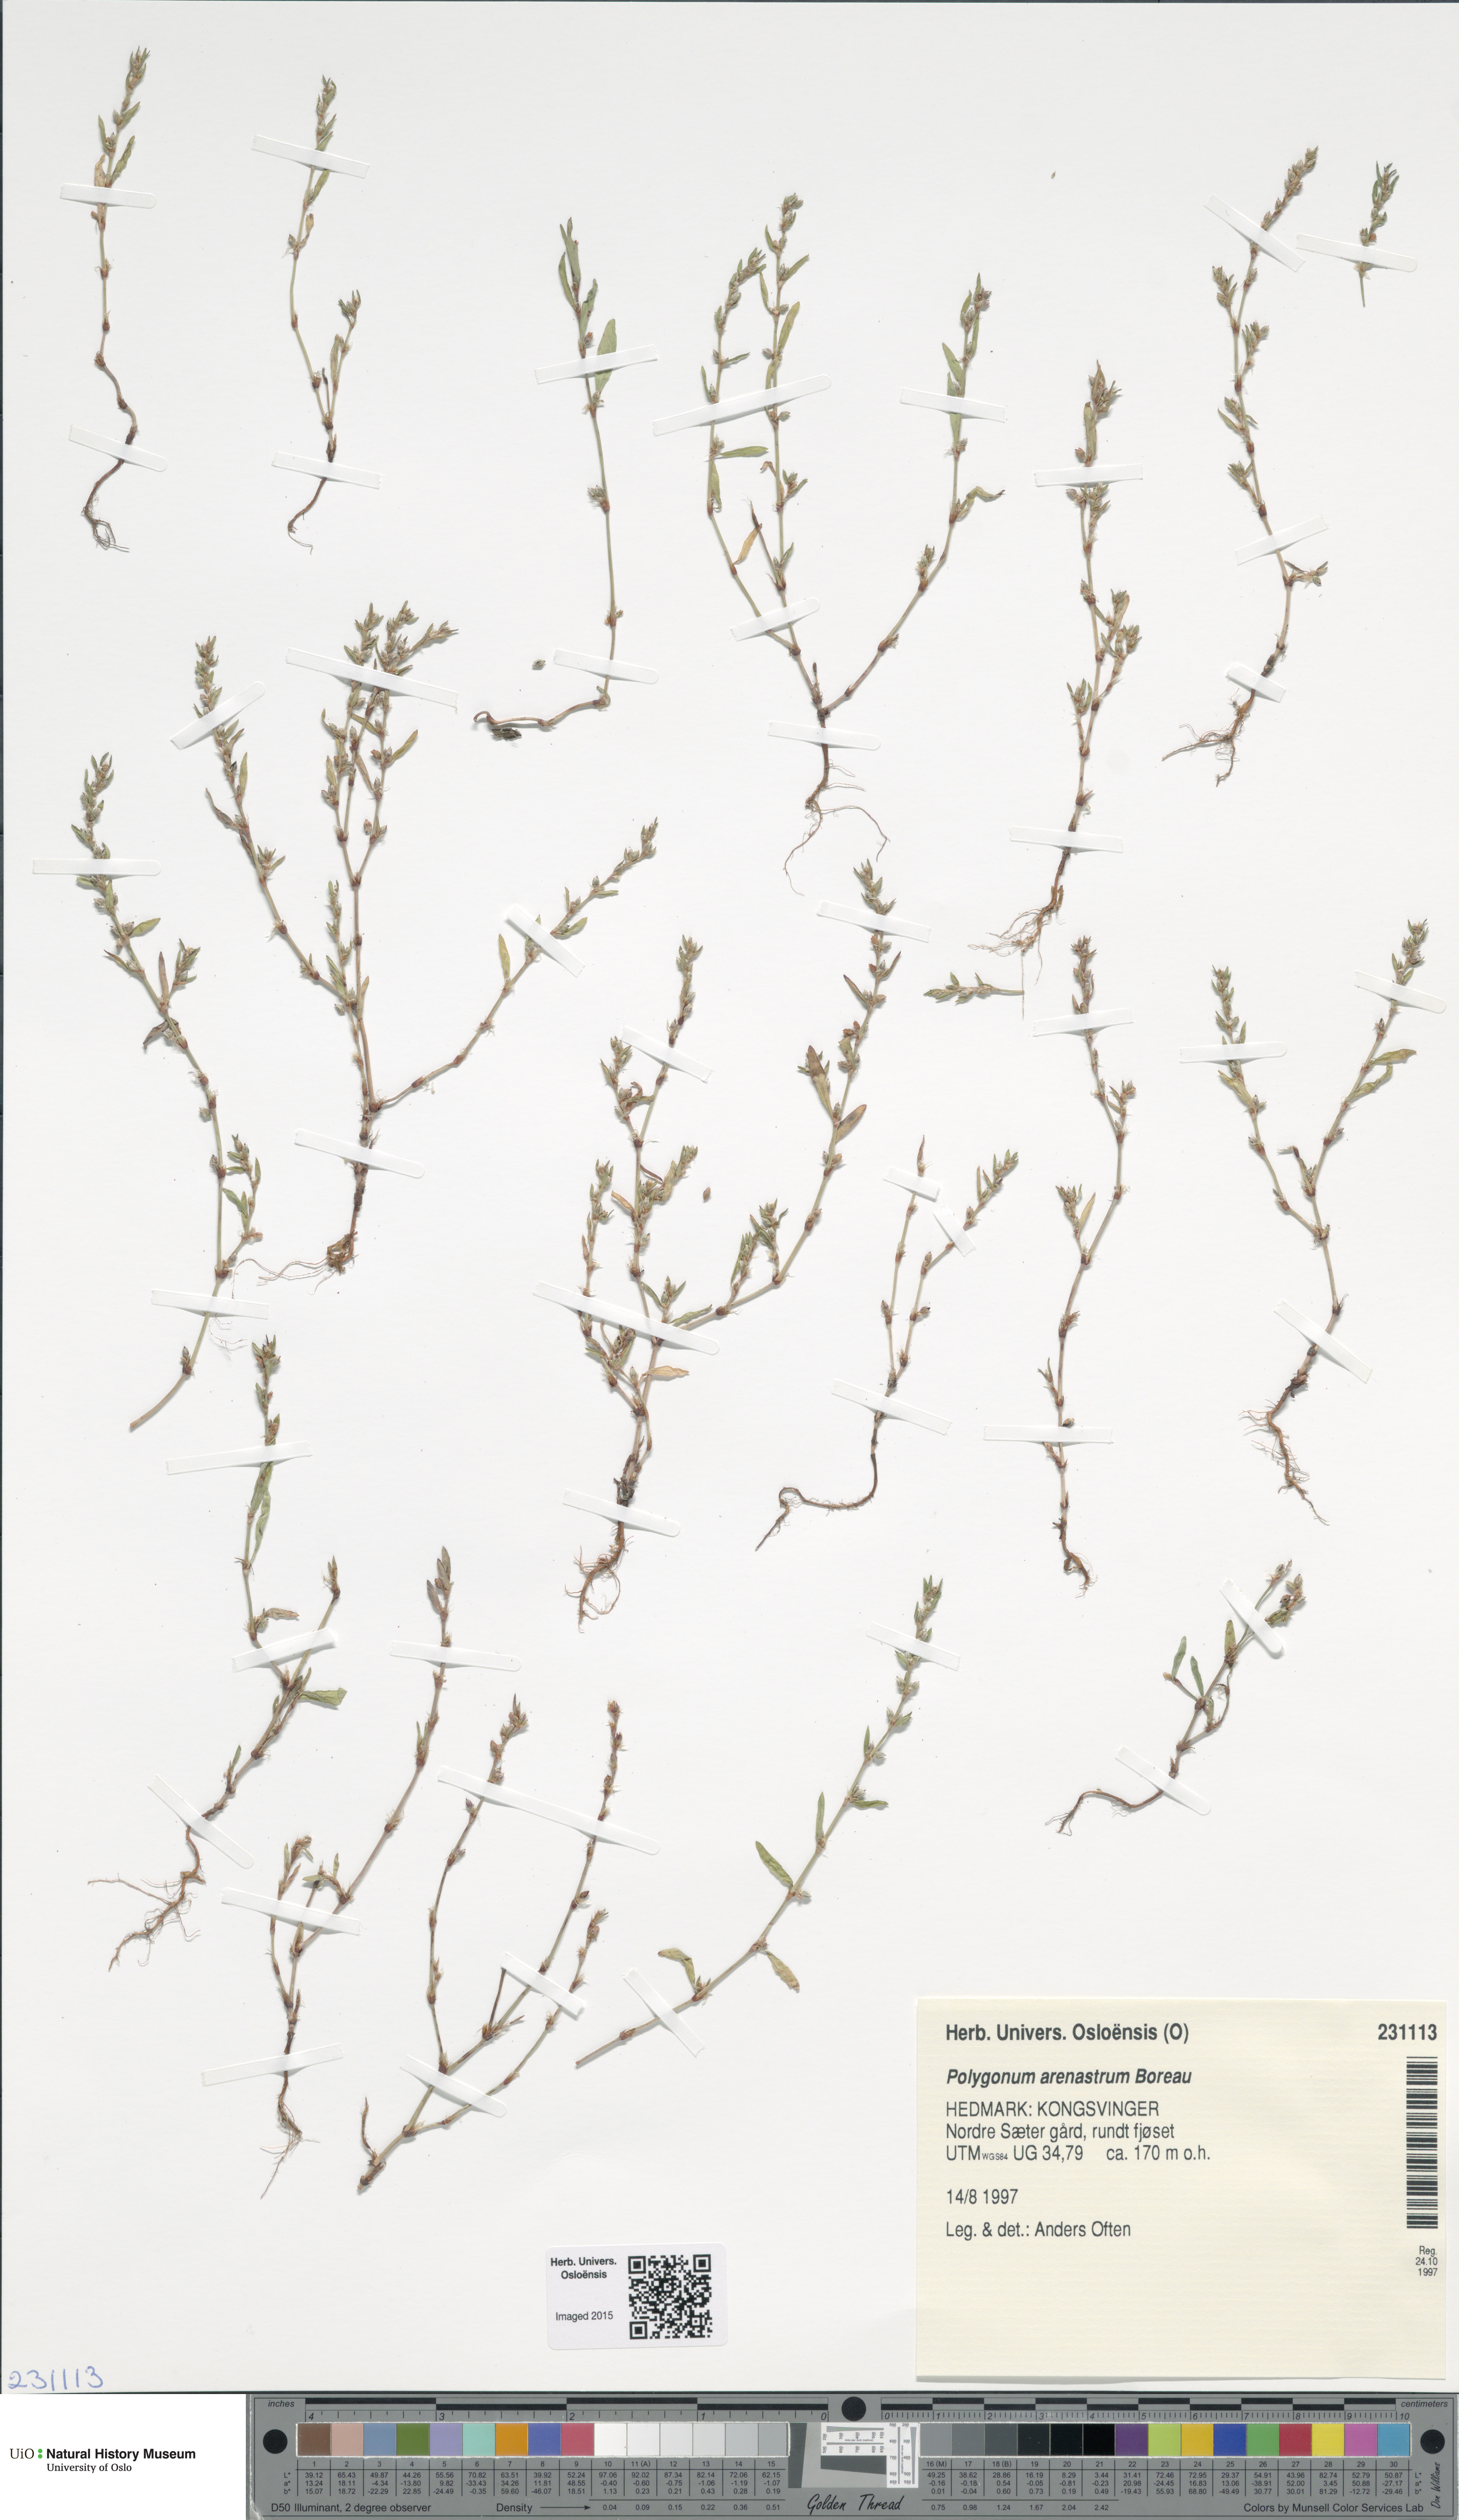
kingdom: Plantae
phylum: Tracheophyta
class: Magnoliopsida
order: Caryophyllales
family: Polygonaceae
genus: Polygonum
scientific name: Polygonum arenastrum
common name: Equal-leaved knotgrass
